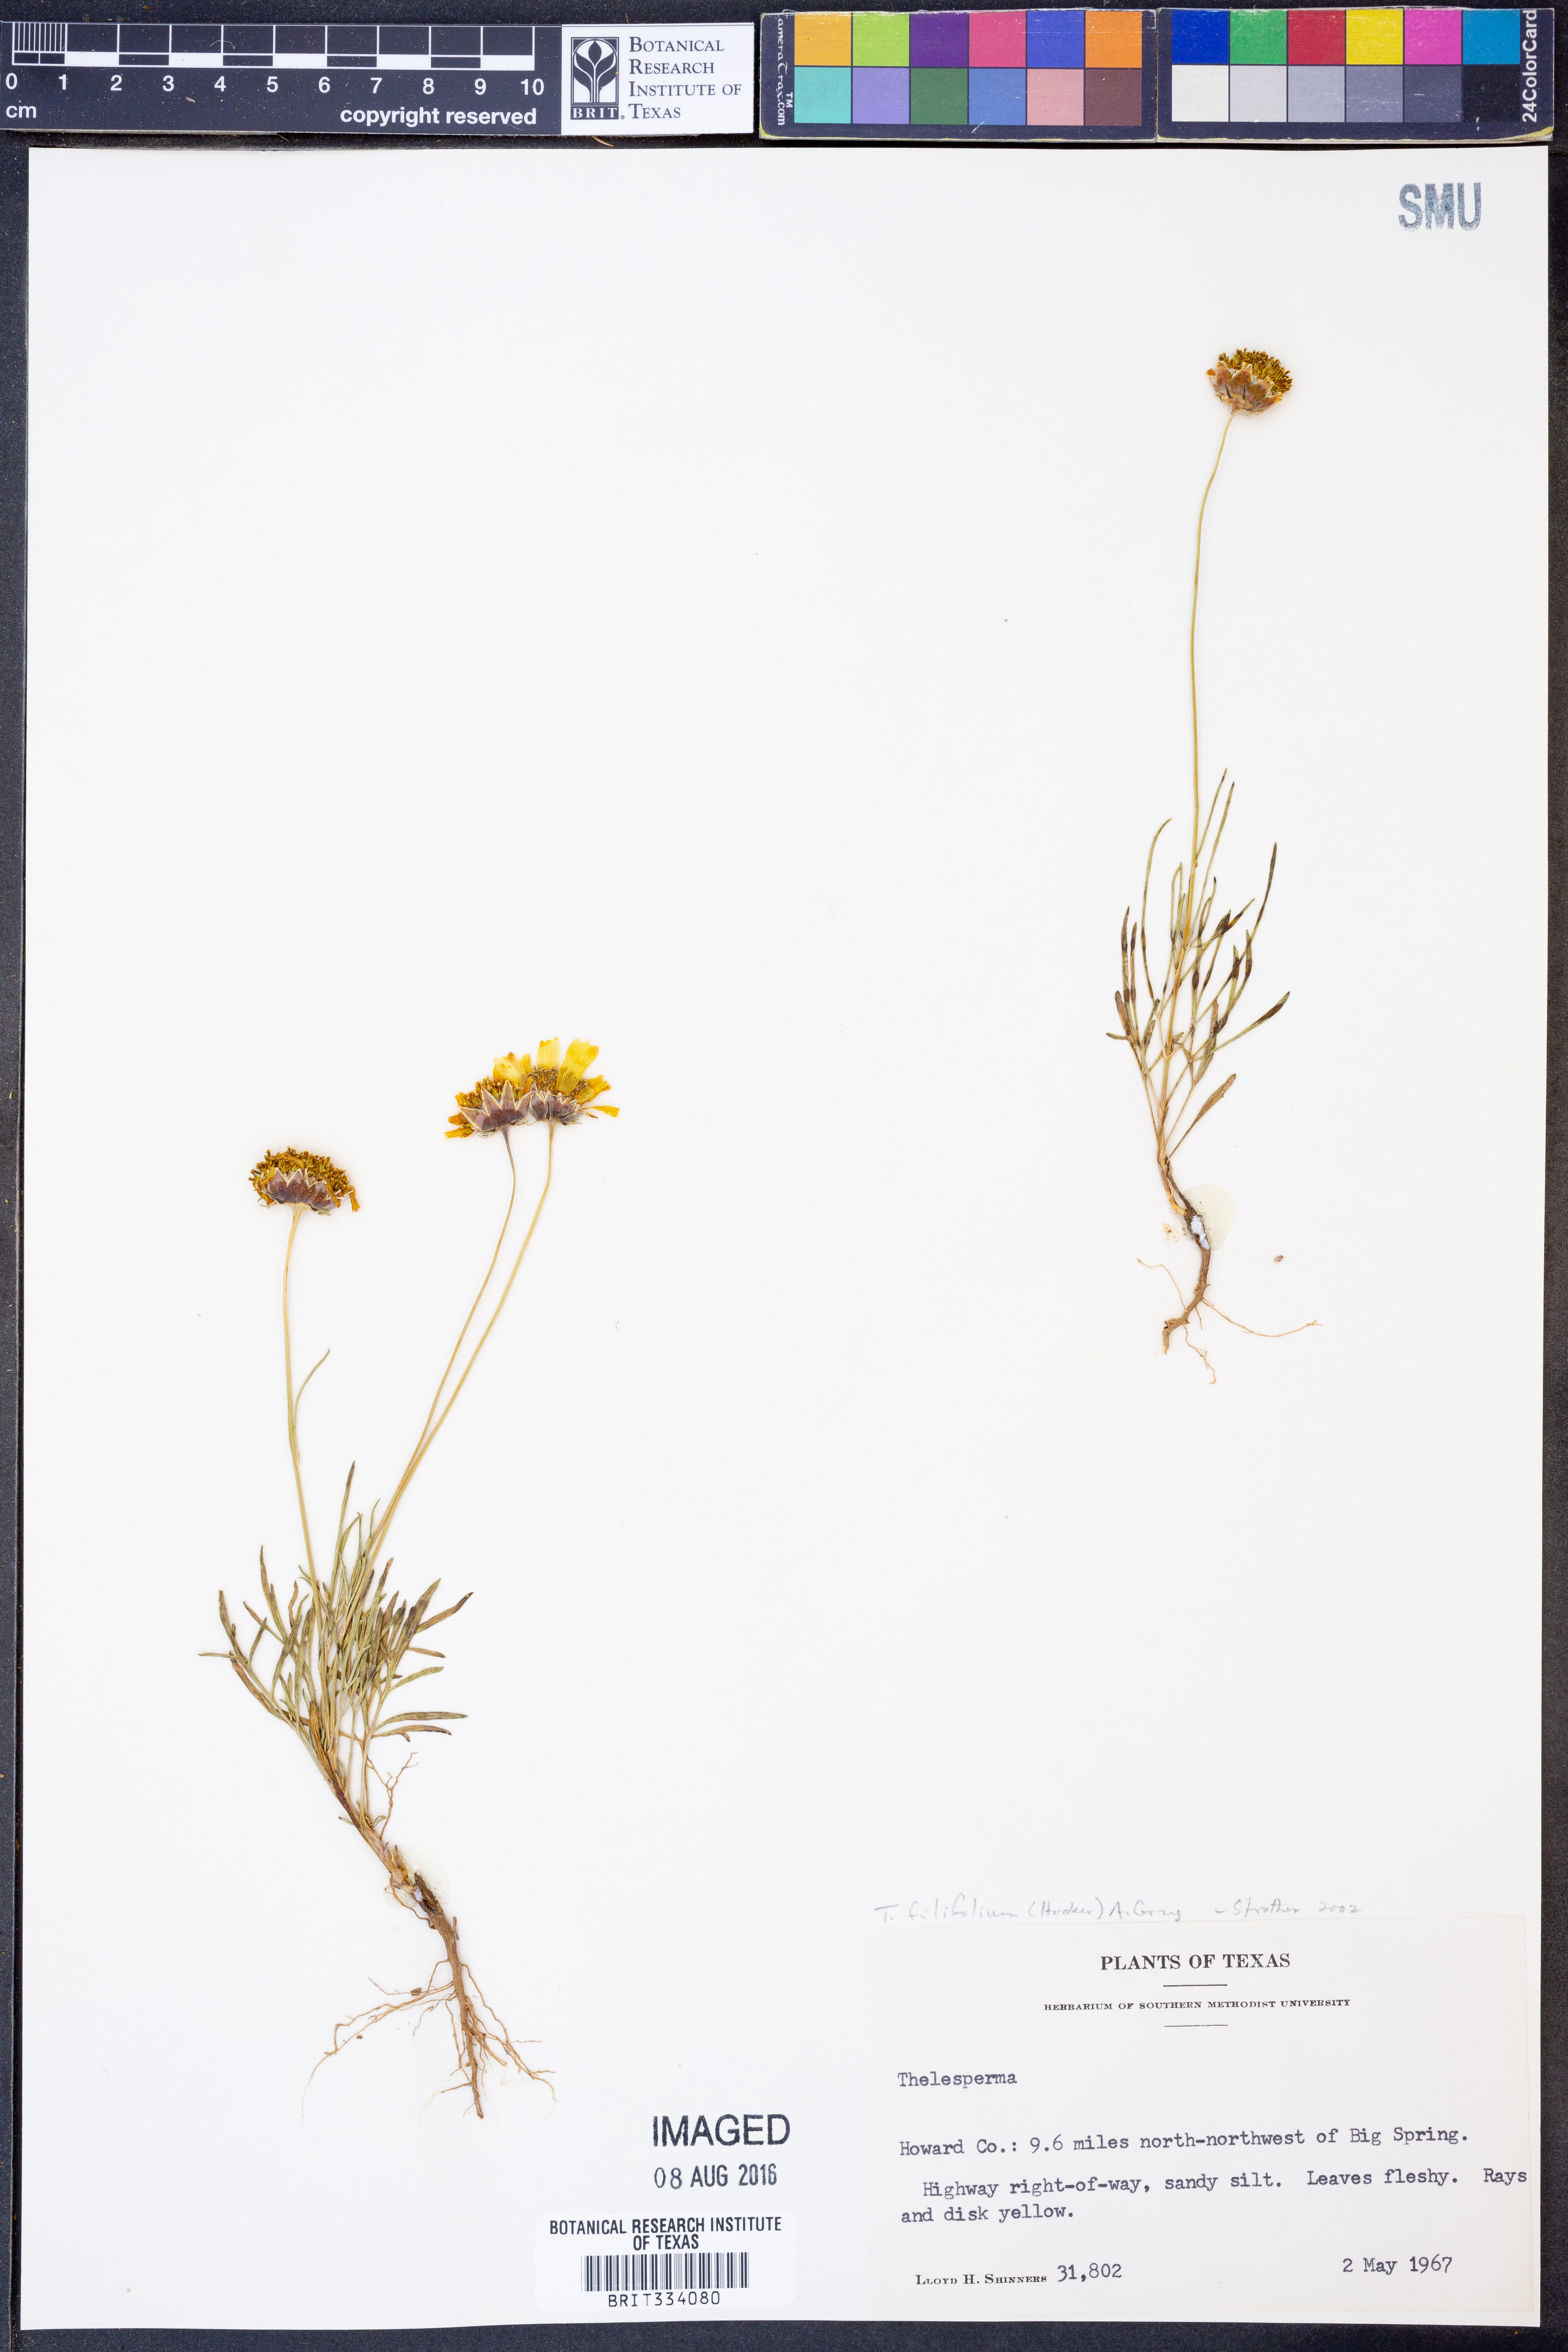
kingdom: Plantae
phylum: Tracheophyta
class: Magnoliopsida
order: Asterales
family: Asteraceae
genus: Thelesperma
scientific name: Thelesperma filifolium
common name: Stiff greenthread
